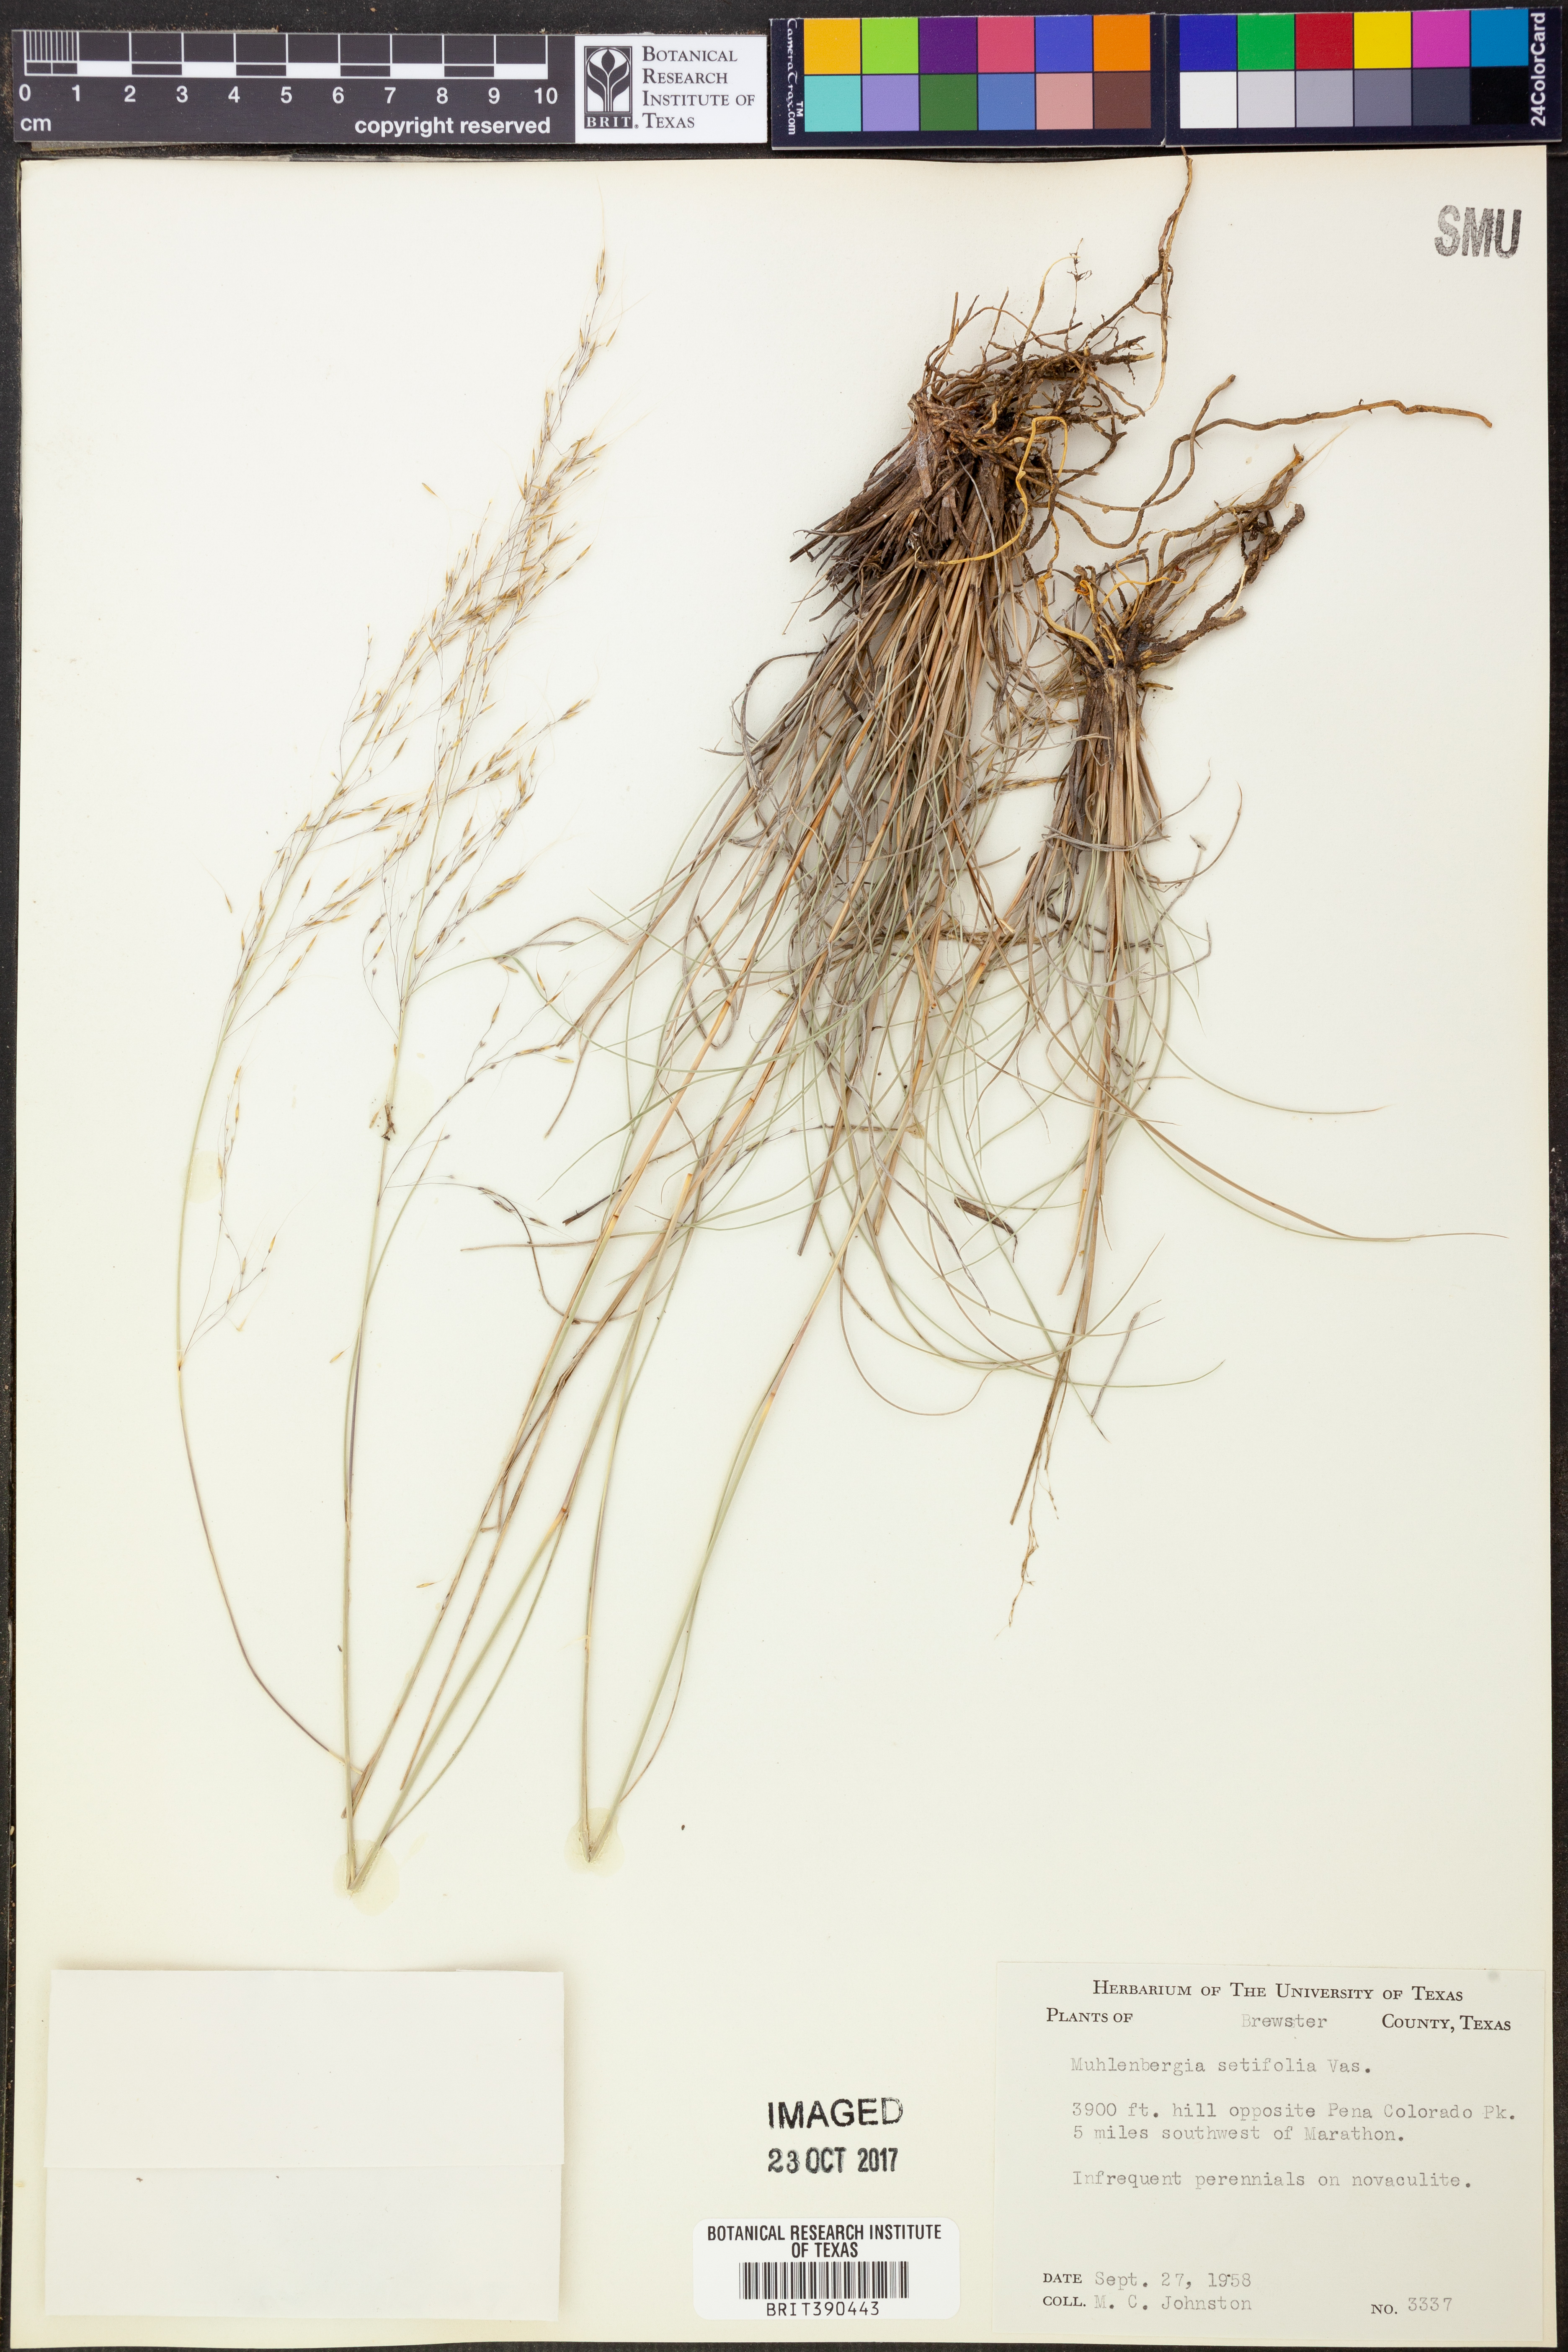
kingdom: Plantae
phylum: Tracheophyta
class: Liliopsida
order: Poales
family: Poaceae
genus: Muhlenbergia
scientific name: Muhlenbergia setifolia
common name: Curly-leaf muhly
